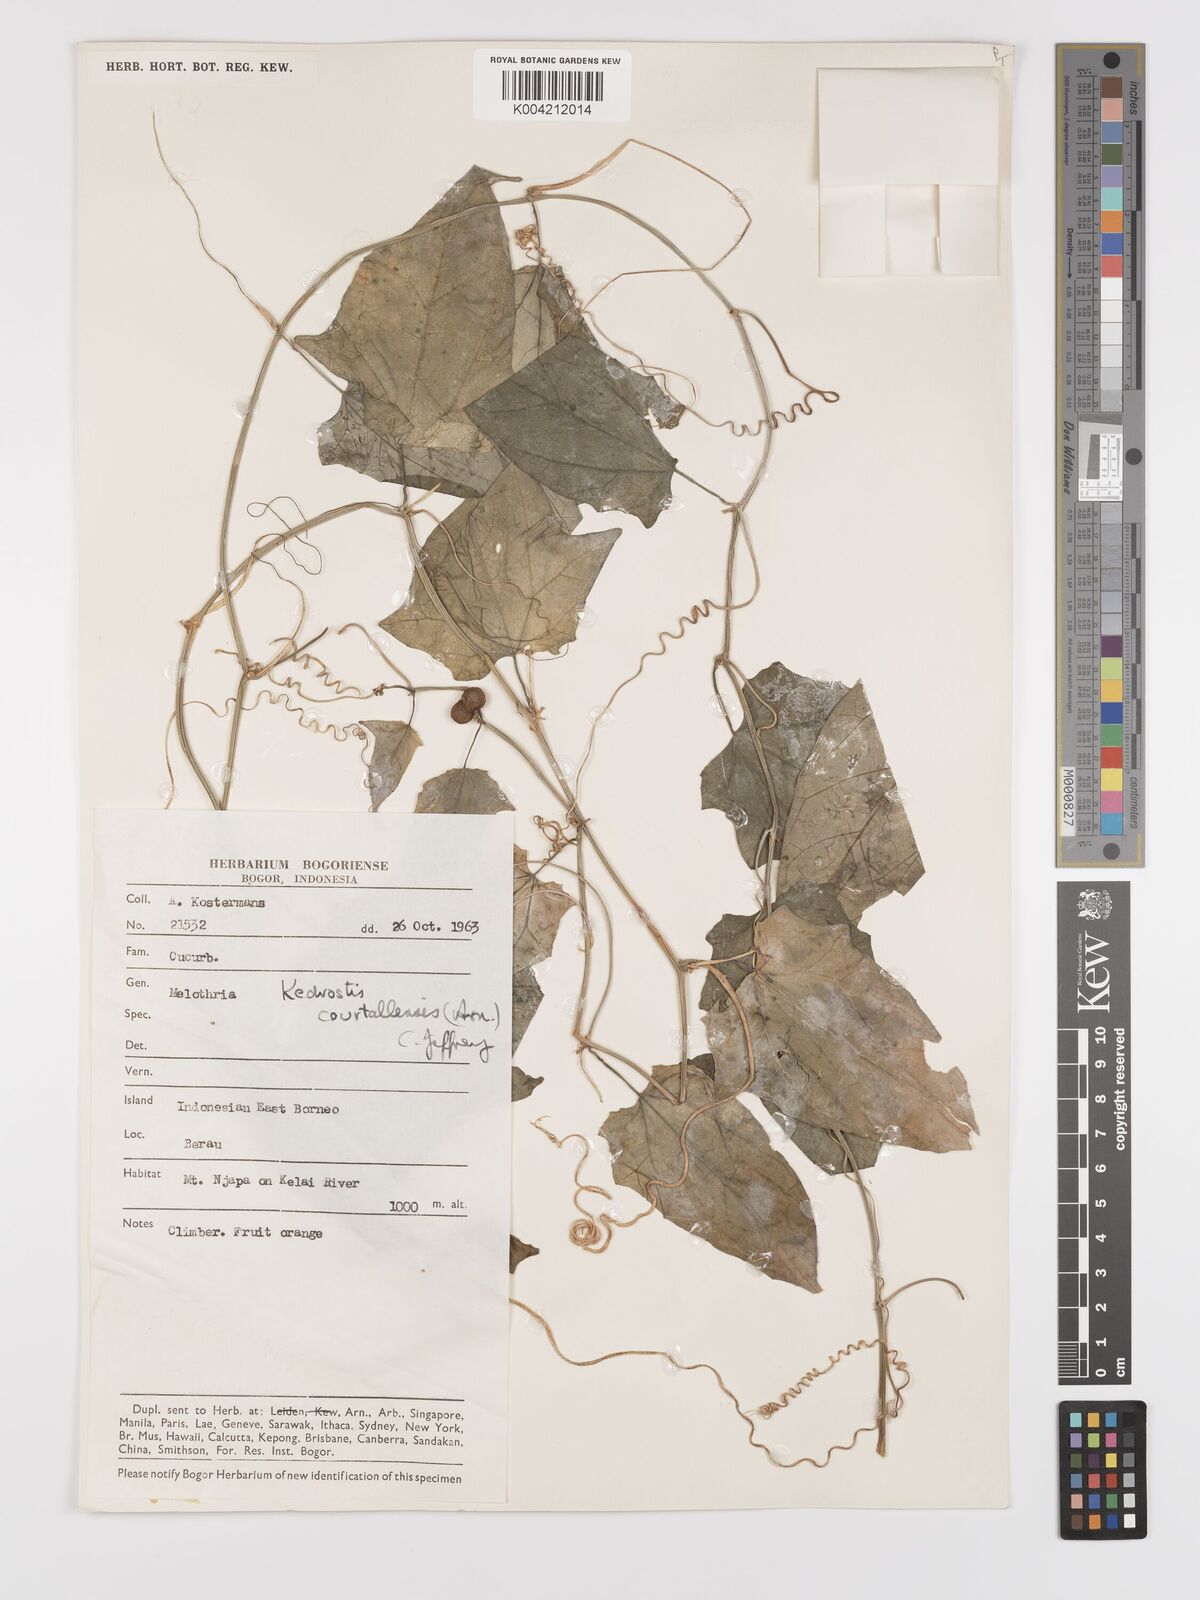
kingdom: Plantae
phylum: Tracheophyta
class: Magnoliopsida
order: Cucurbitales
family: Cucurbitaceae
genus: Kedrostis
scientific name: Kedrostis courtallensis
